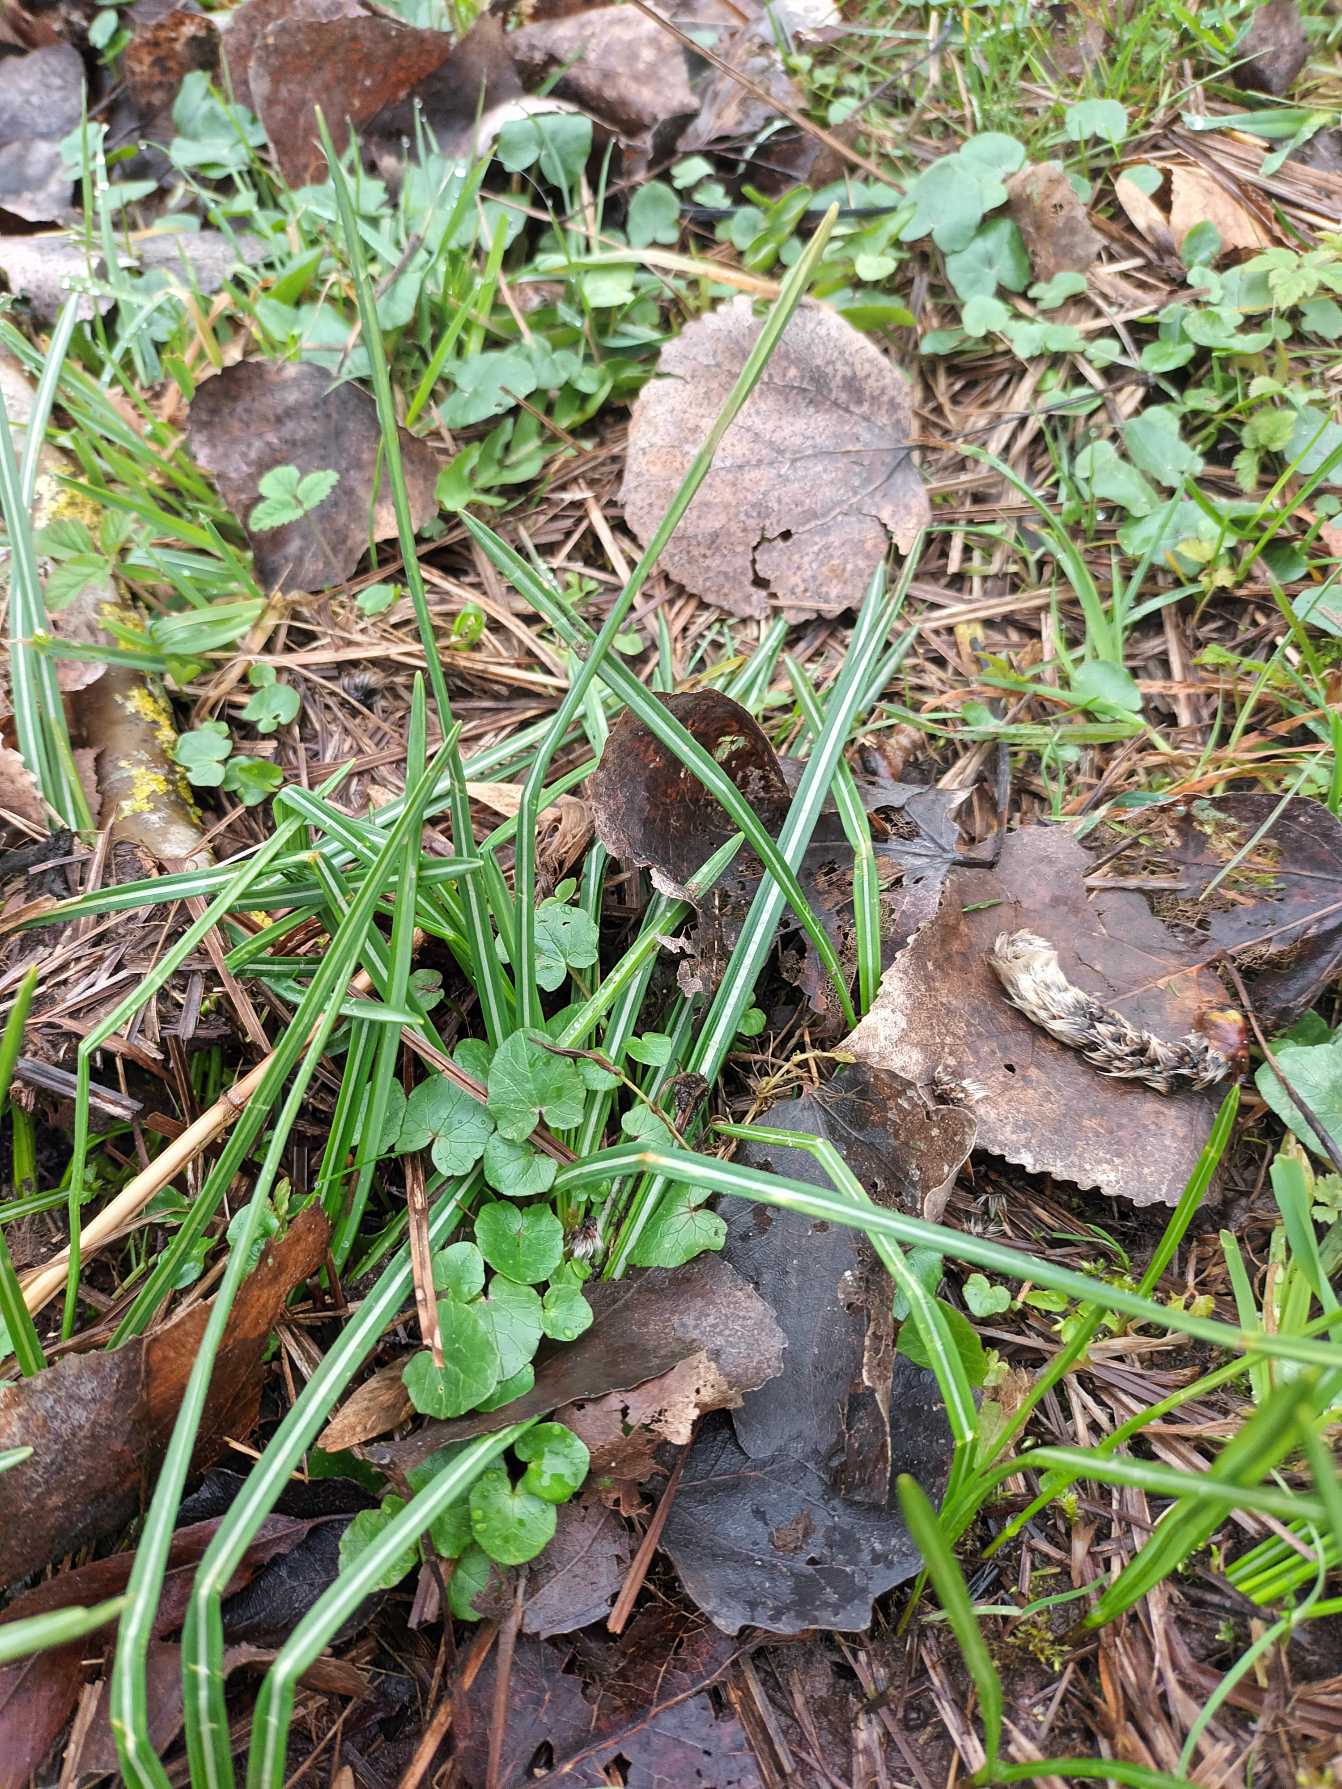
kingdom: Plantae
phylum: Tracheophyta
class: Liliopsida
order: Asparagales
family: Iridaceae
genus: Crocus
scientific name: Crocus speciosus
